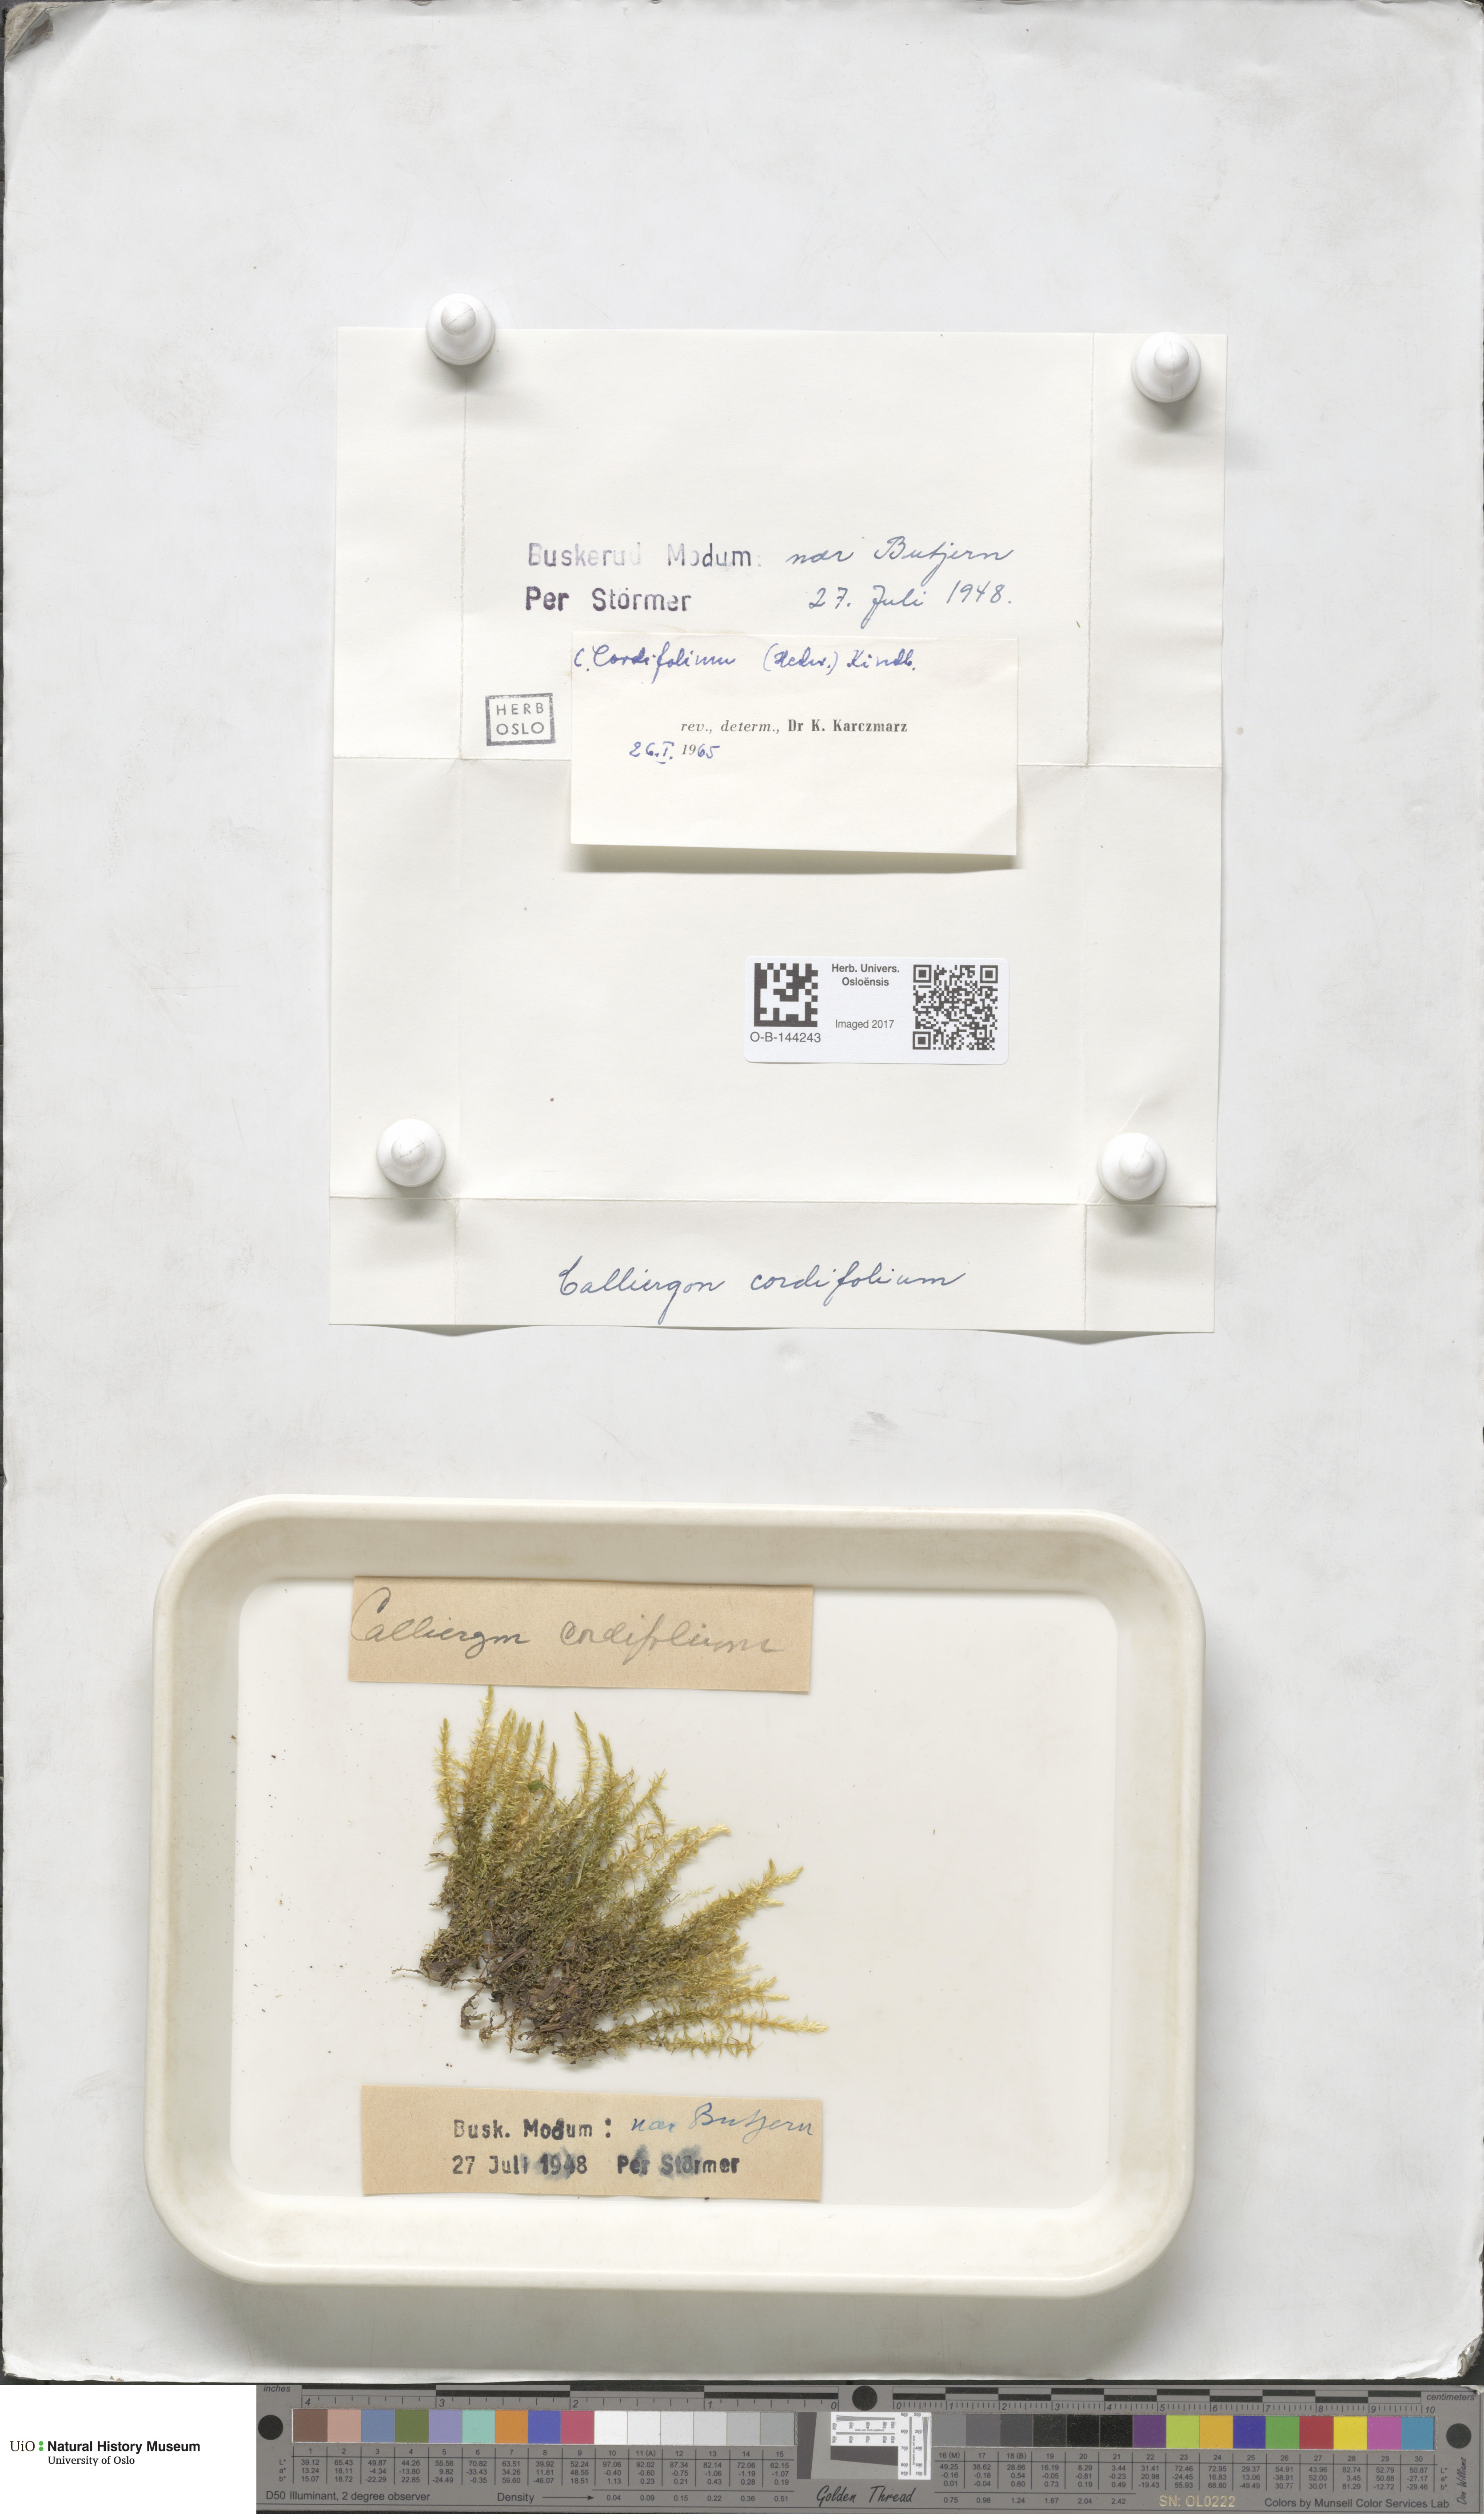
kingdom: Plantae
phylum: Bryophyta
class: Bryopsida
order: Hypnales
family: Calliergonaceae
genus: Calliergon
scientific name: Calliergon cordifolium
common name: Heart-leaved spear moss
